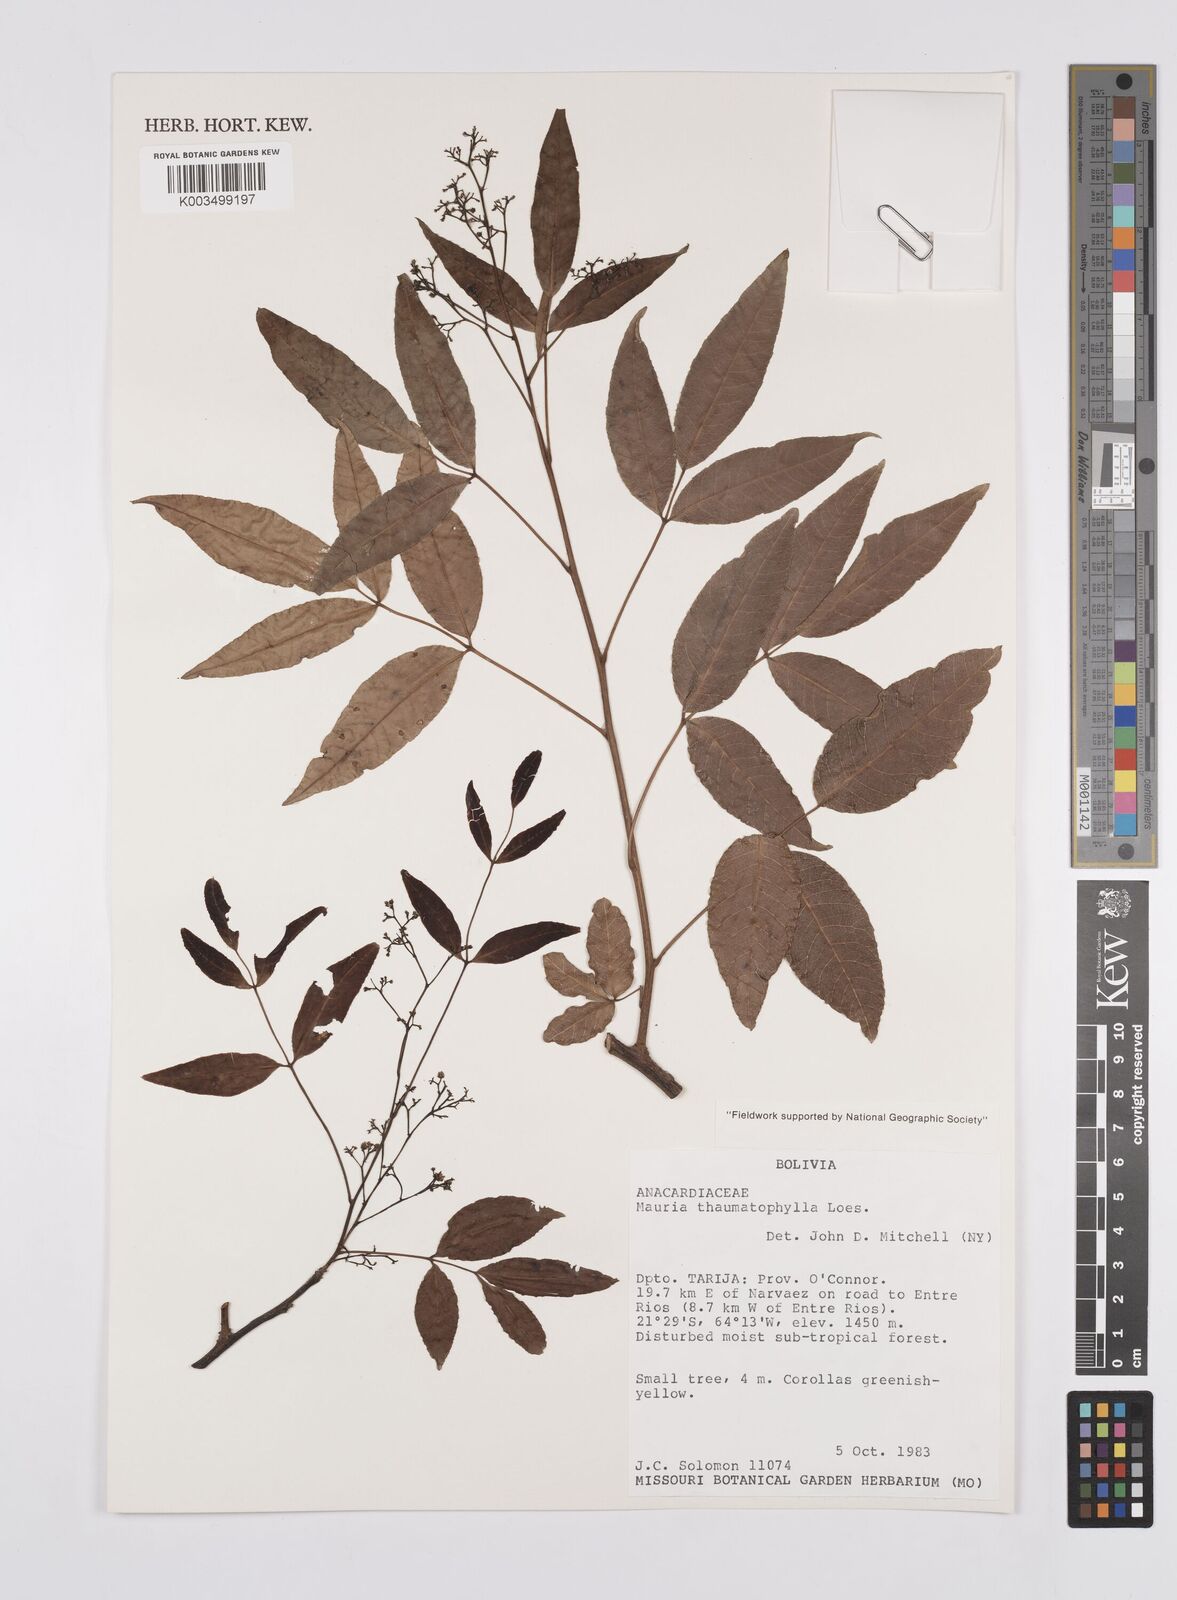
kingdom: Plantae
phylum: Tracheophyta
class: Magnoliopsida
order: Sapindales
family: Anacardiaceae
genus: Mauria
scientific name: Mauria thaumatophylla
